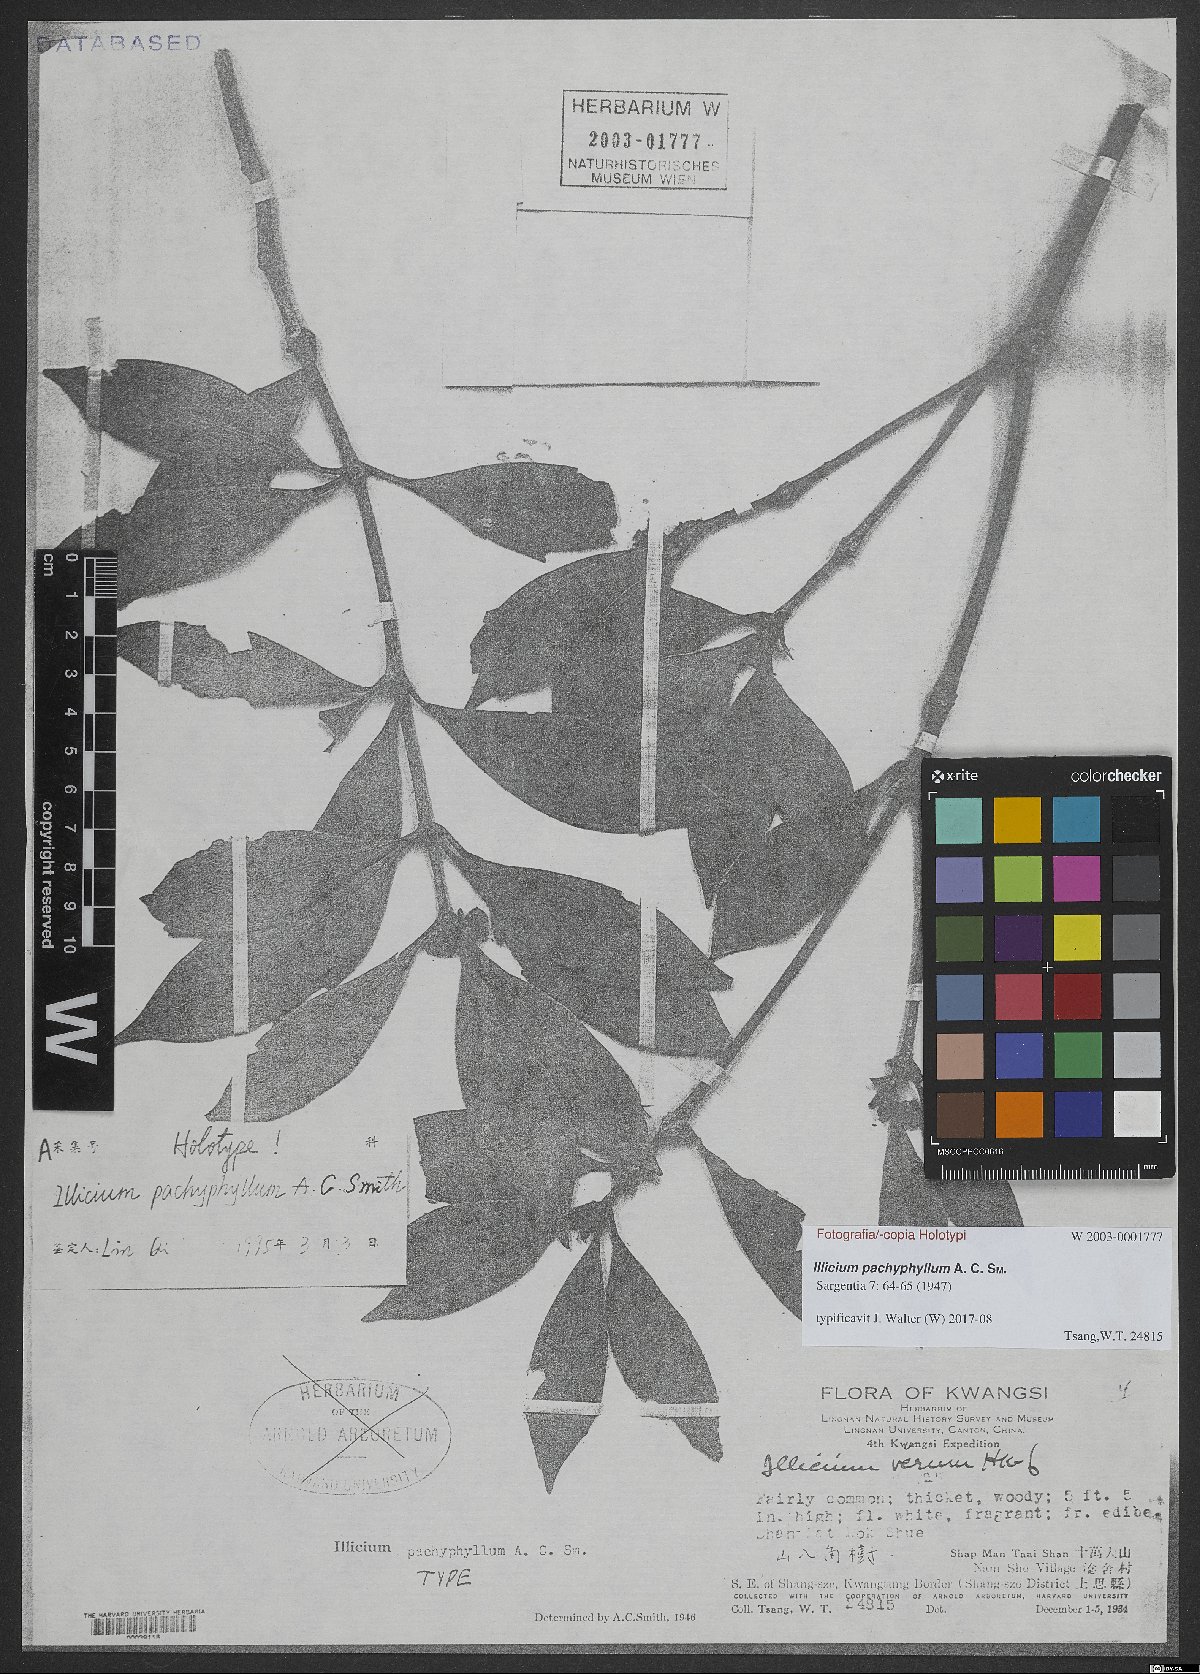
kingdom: Plantae
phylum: Tracheophyta
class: Magnoliopsida
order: Austrobaileyales
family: Schisandraceae
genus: Illicium
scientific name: Illicium pachyphyllum
